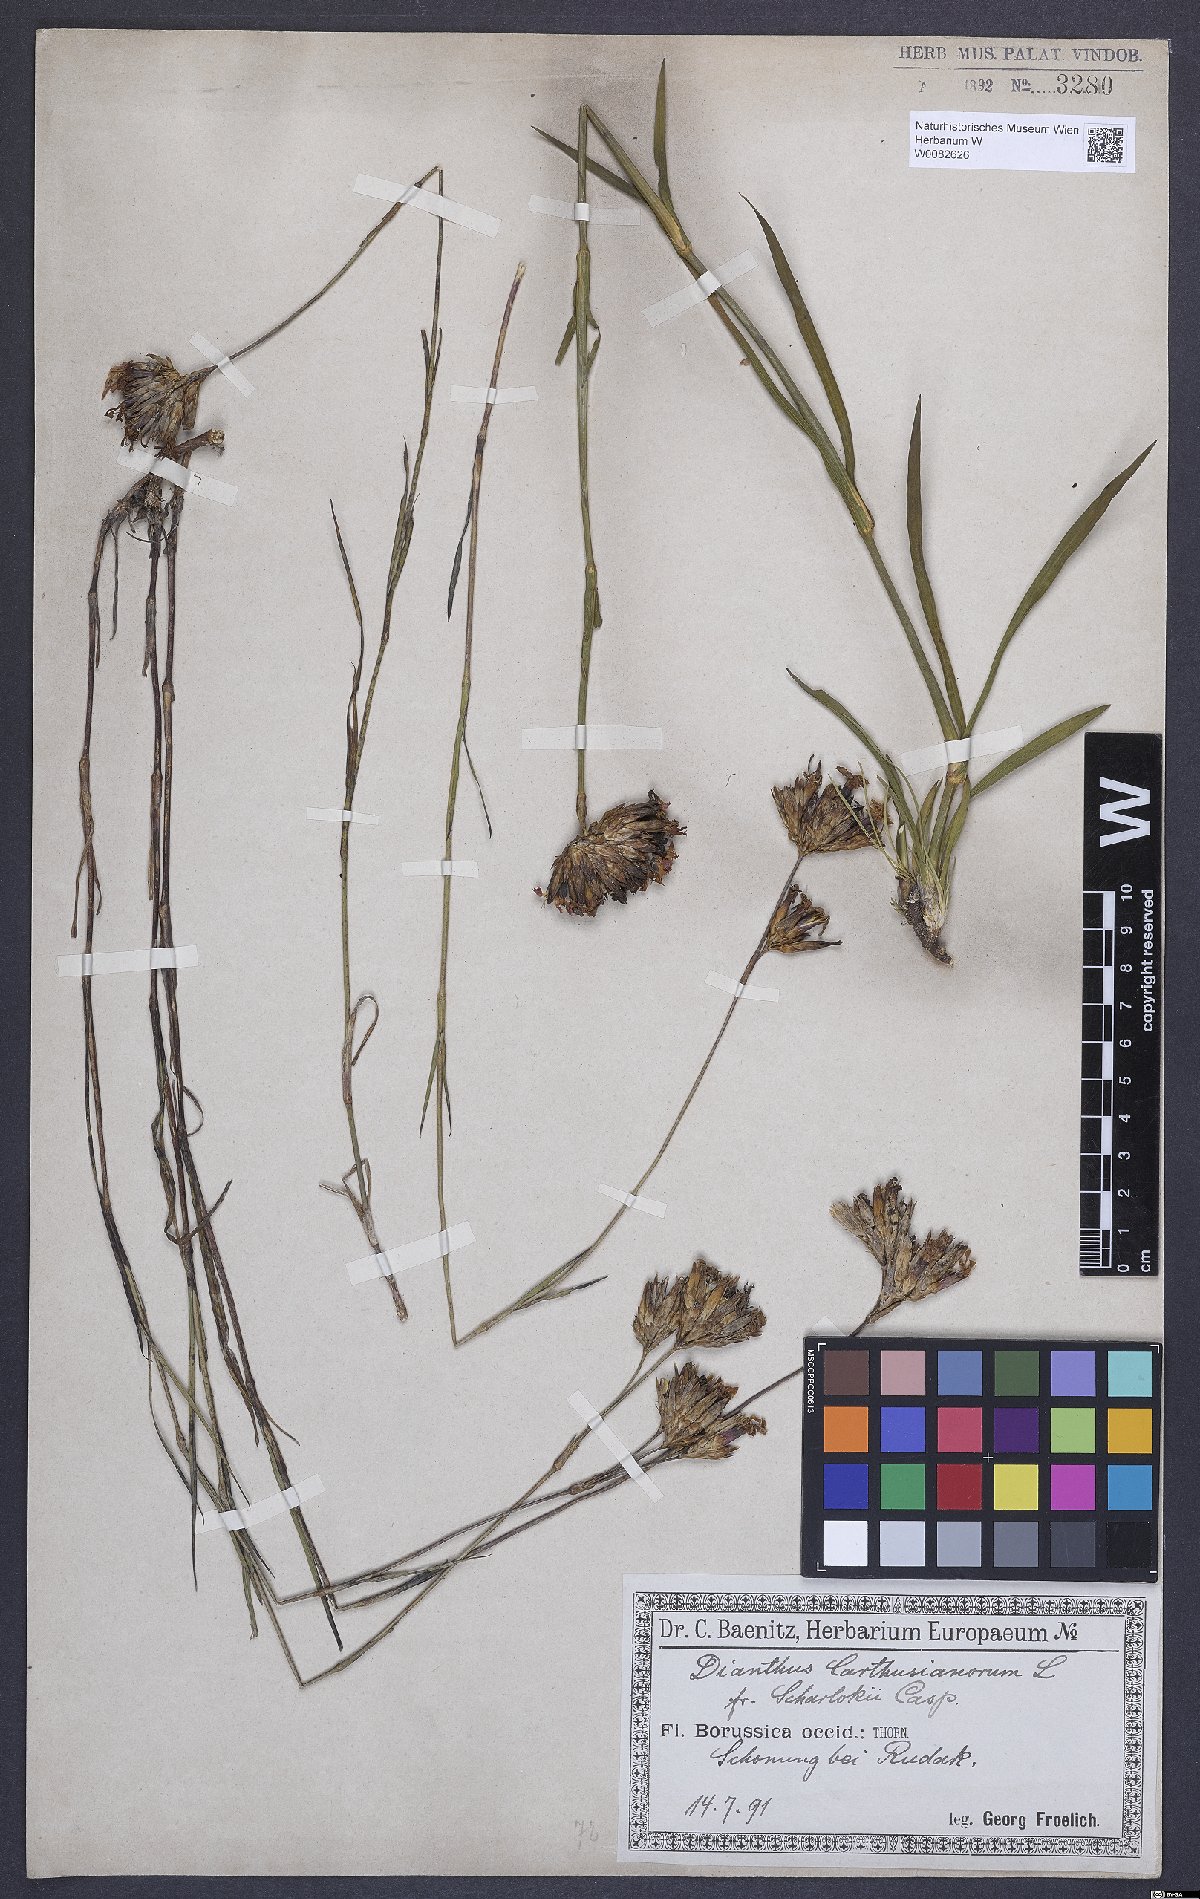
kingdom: Plantae
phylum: Tracheophyta
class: Magnoliopsida
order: Caryophyllales
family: Caryophyllaceae
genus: Dianthus
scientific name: Dianthus carthusianorum
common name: Carthusian pink
